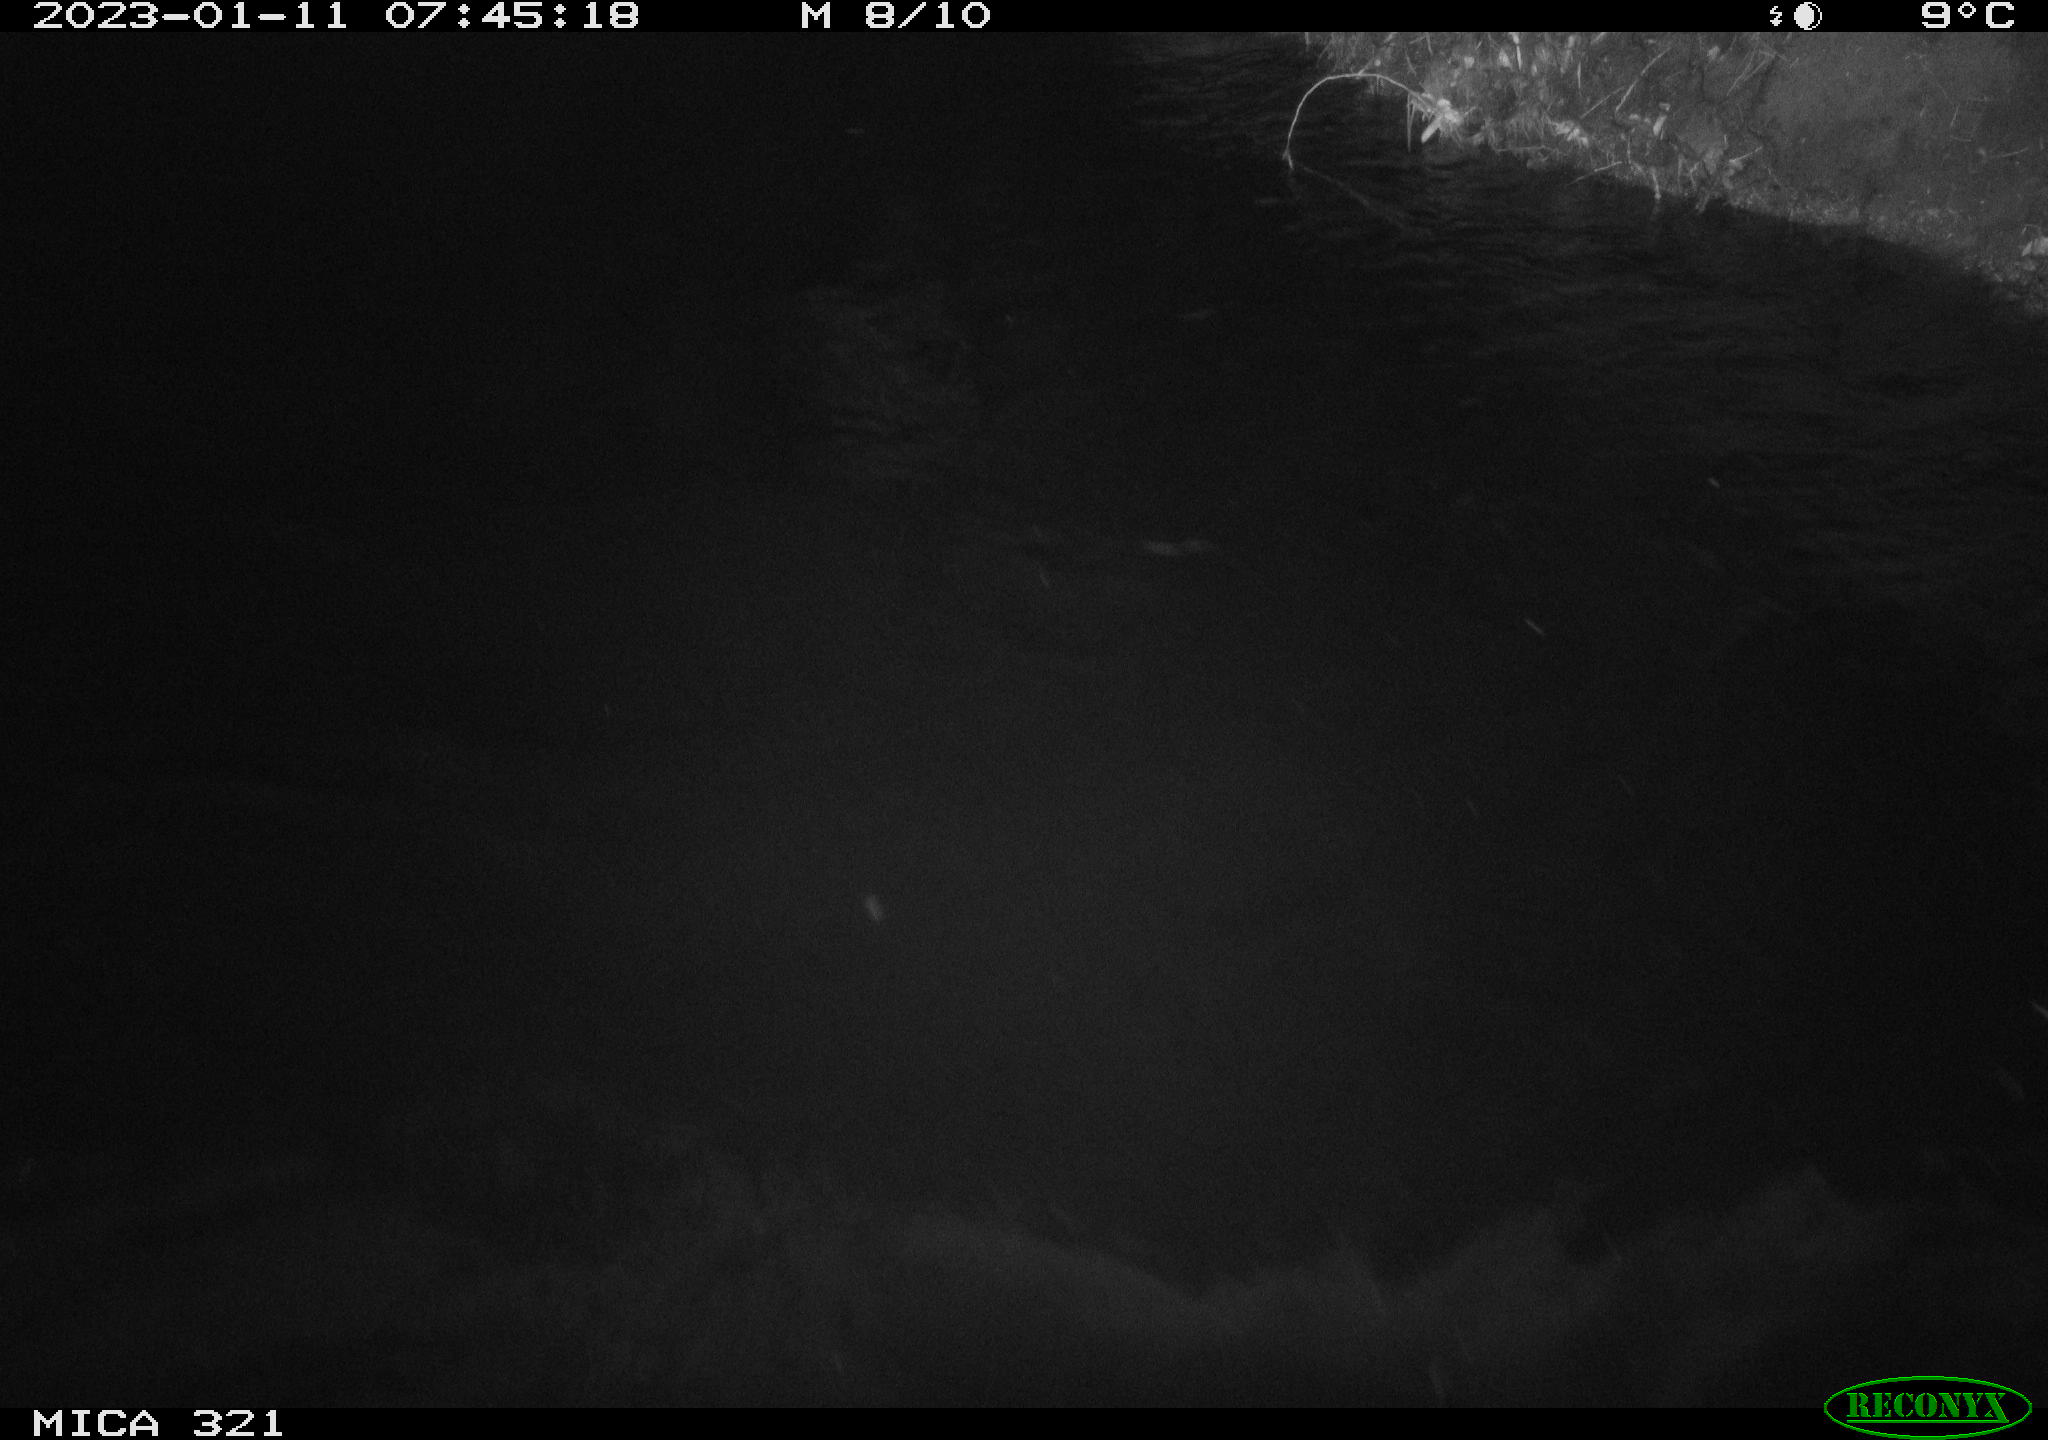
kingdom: Animalia
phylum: Chordata
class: Aves
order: Anseriformes
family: Anatidae
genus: Anas
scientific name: Anas
